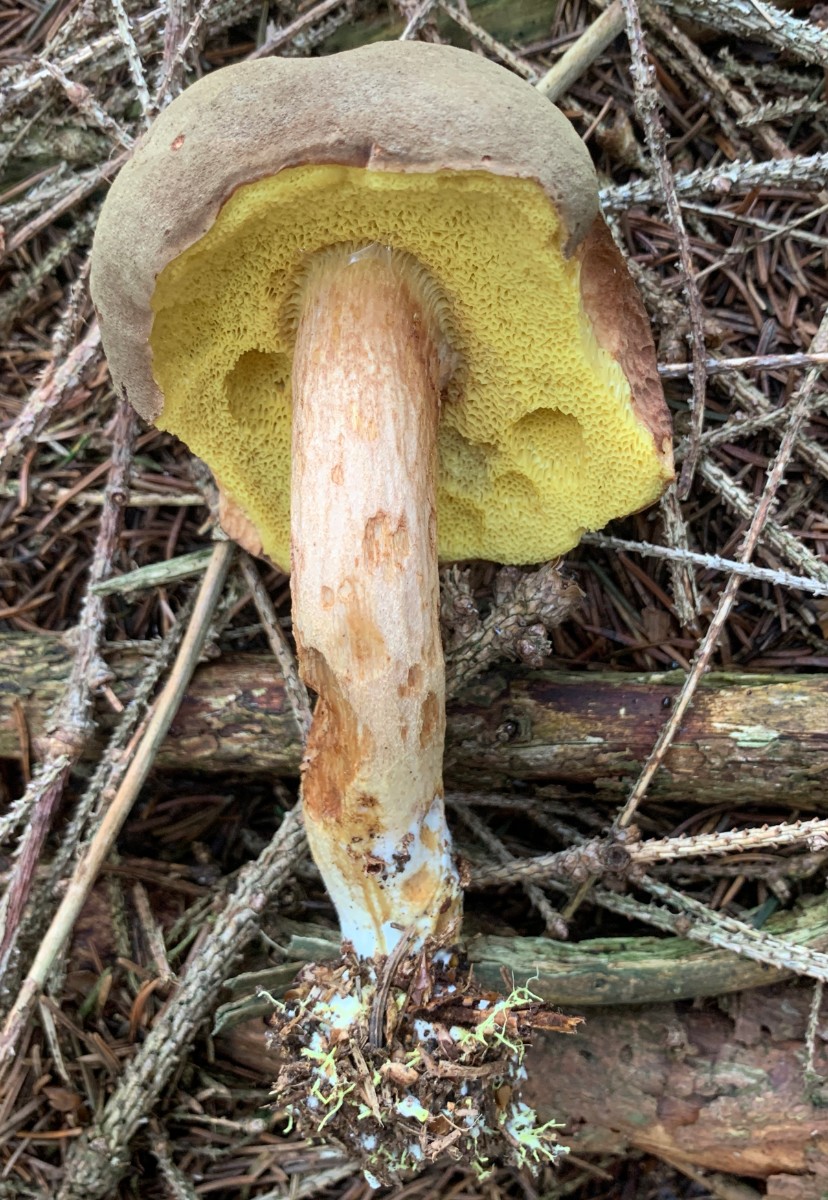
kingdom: Fungi
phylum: Basidiomycota
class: Agaricomycetes
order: Boletales
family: Boletaceae
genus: Xerocomus
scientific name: Xerocomus ferrugineus
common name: vaskeskinds-rørhat
